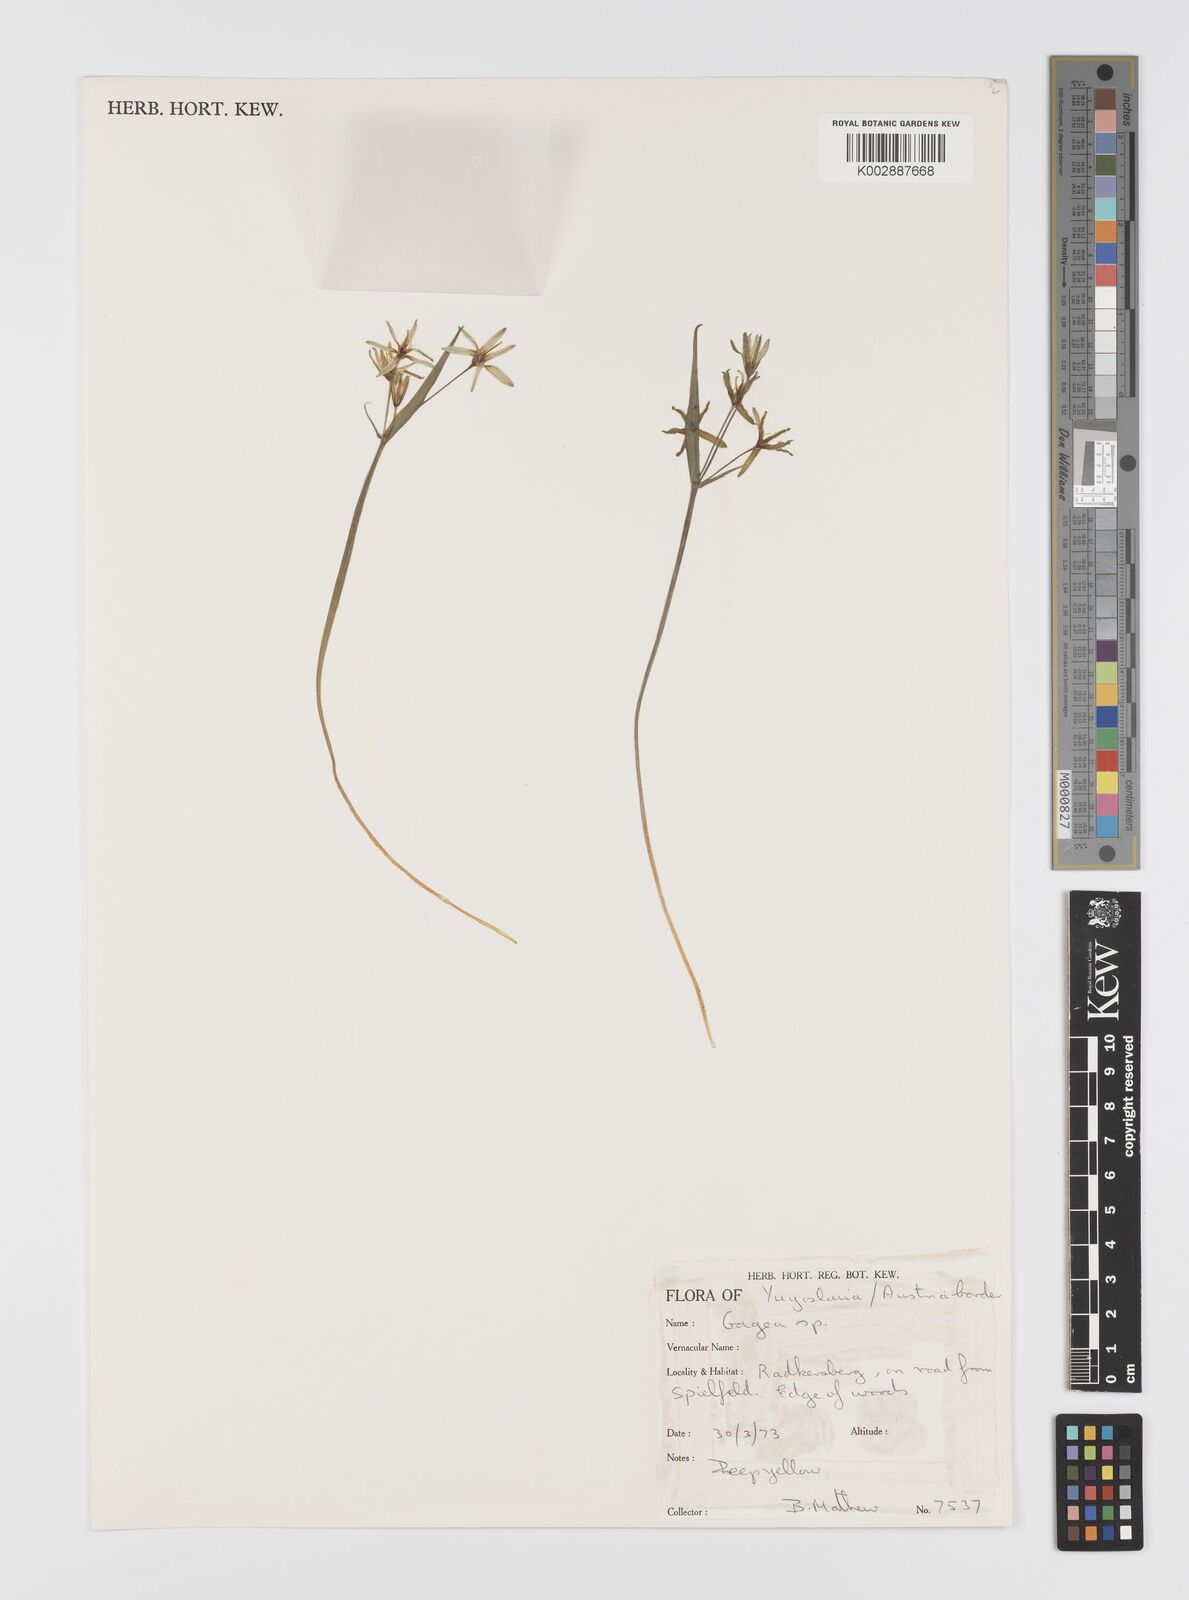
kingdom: Plantae
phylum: Tracheophyta
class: Liliopsida
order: Liliales
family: Liliaceae
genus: Gagea
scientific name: Gagea
